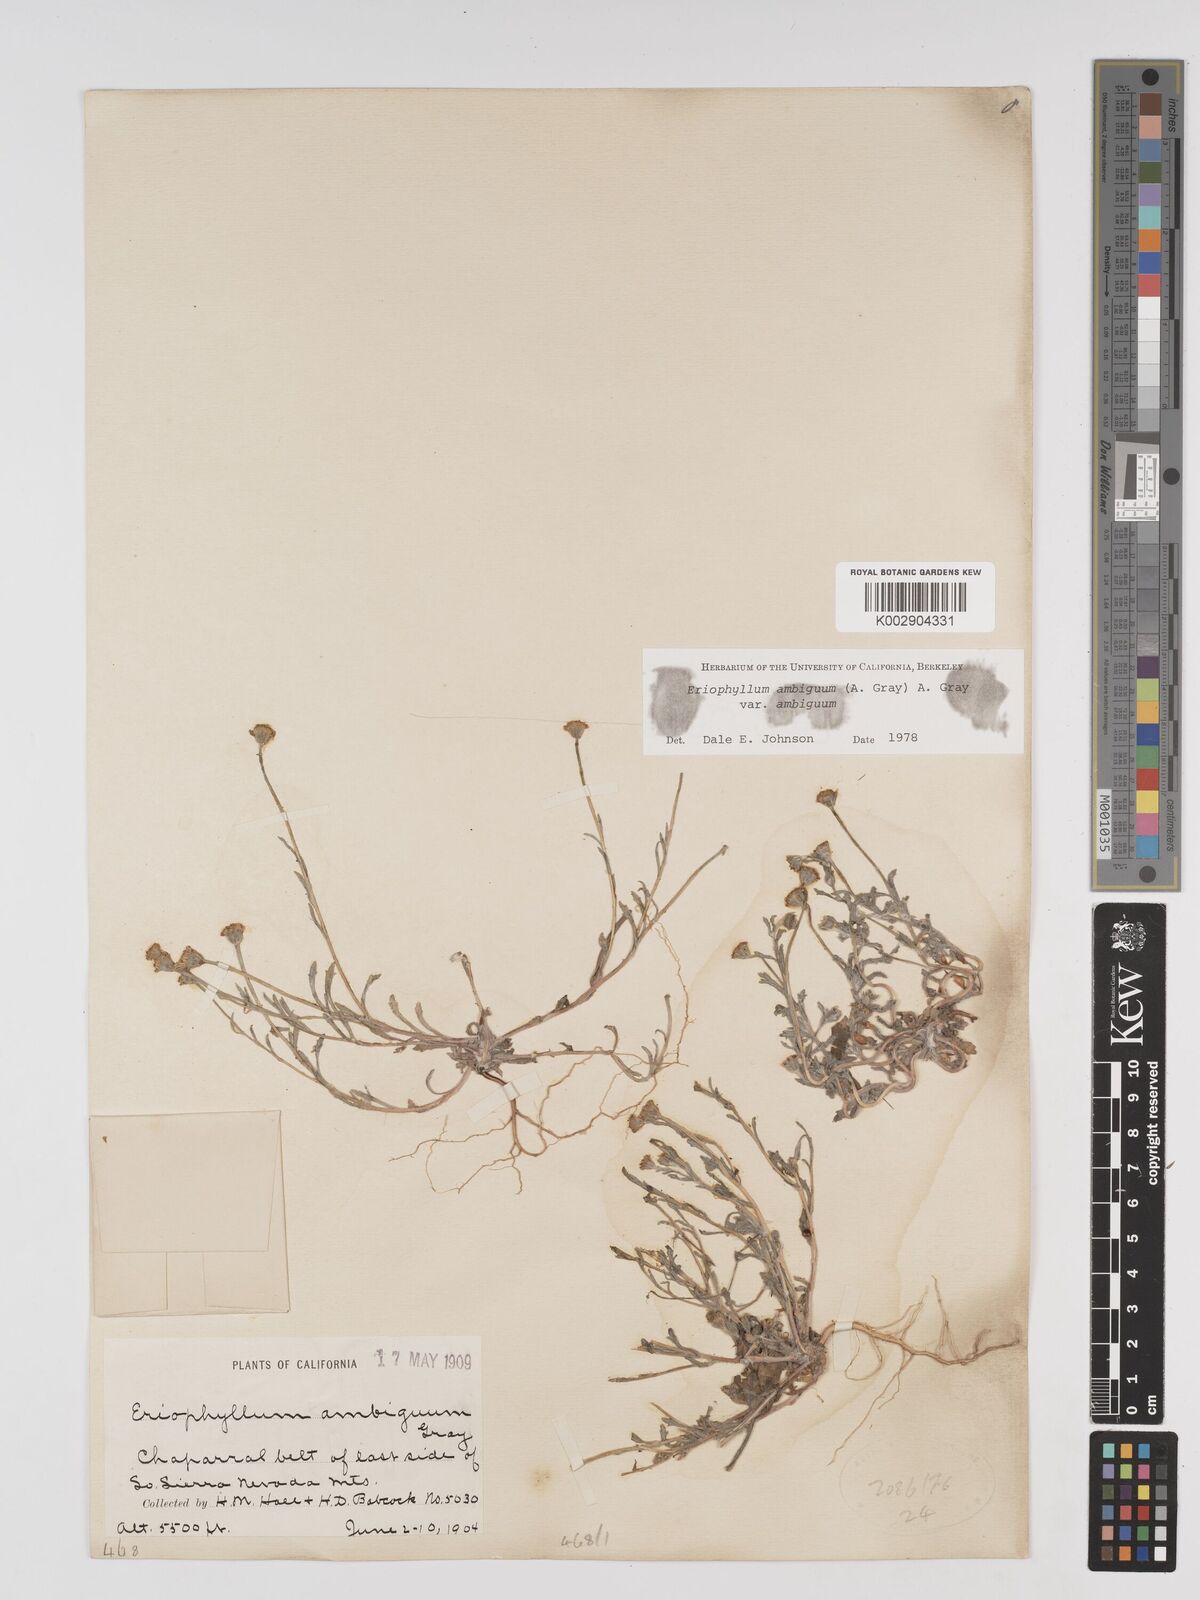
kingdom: Plantae
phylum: Tracheophyta
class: Magnoliopsida
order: Asterales
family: Asteraceae
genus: Eriophyllum
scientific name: Eriophyllum ambiguum
